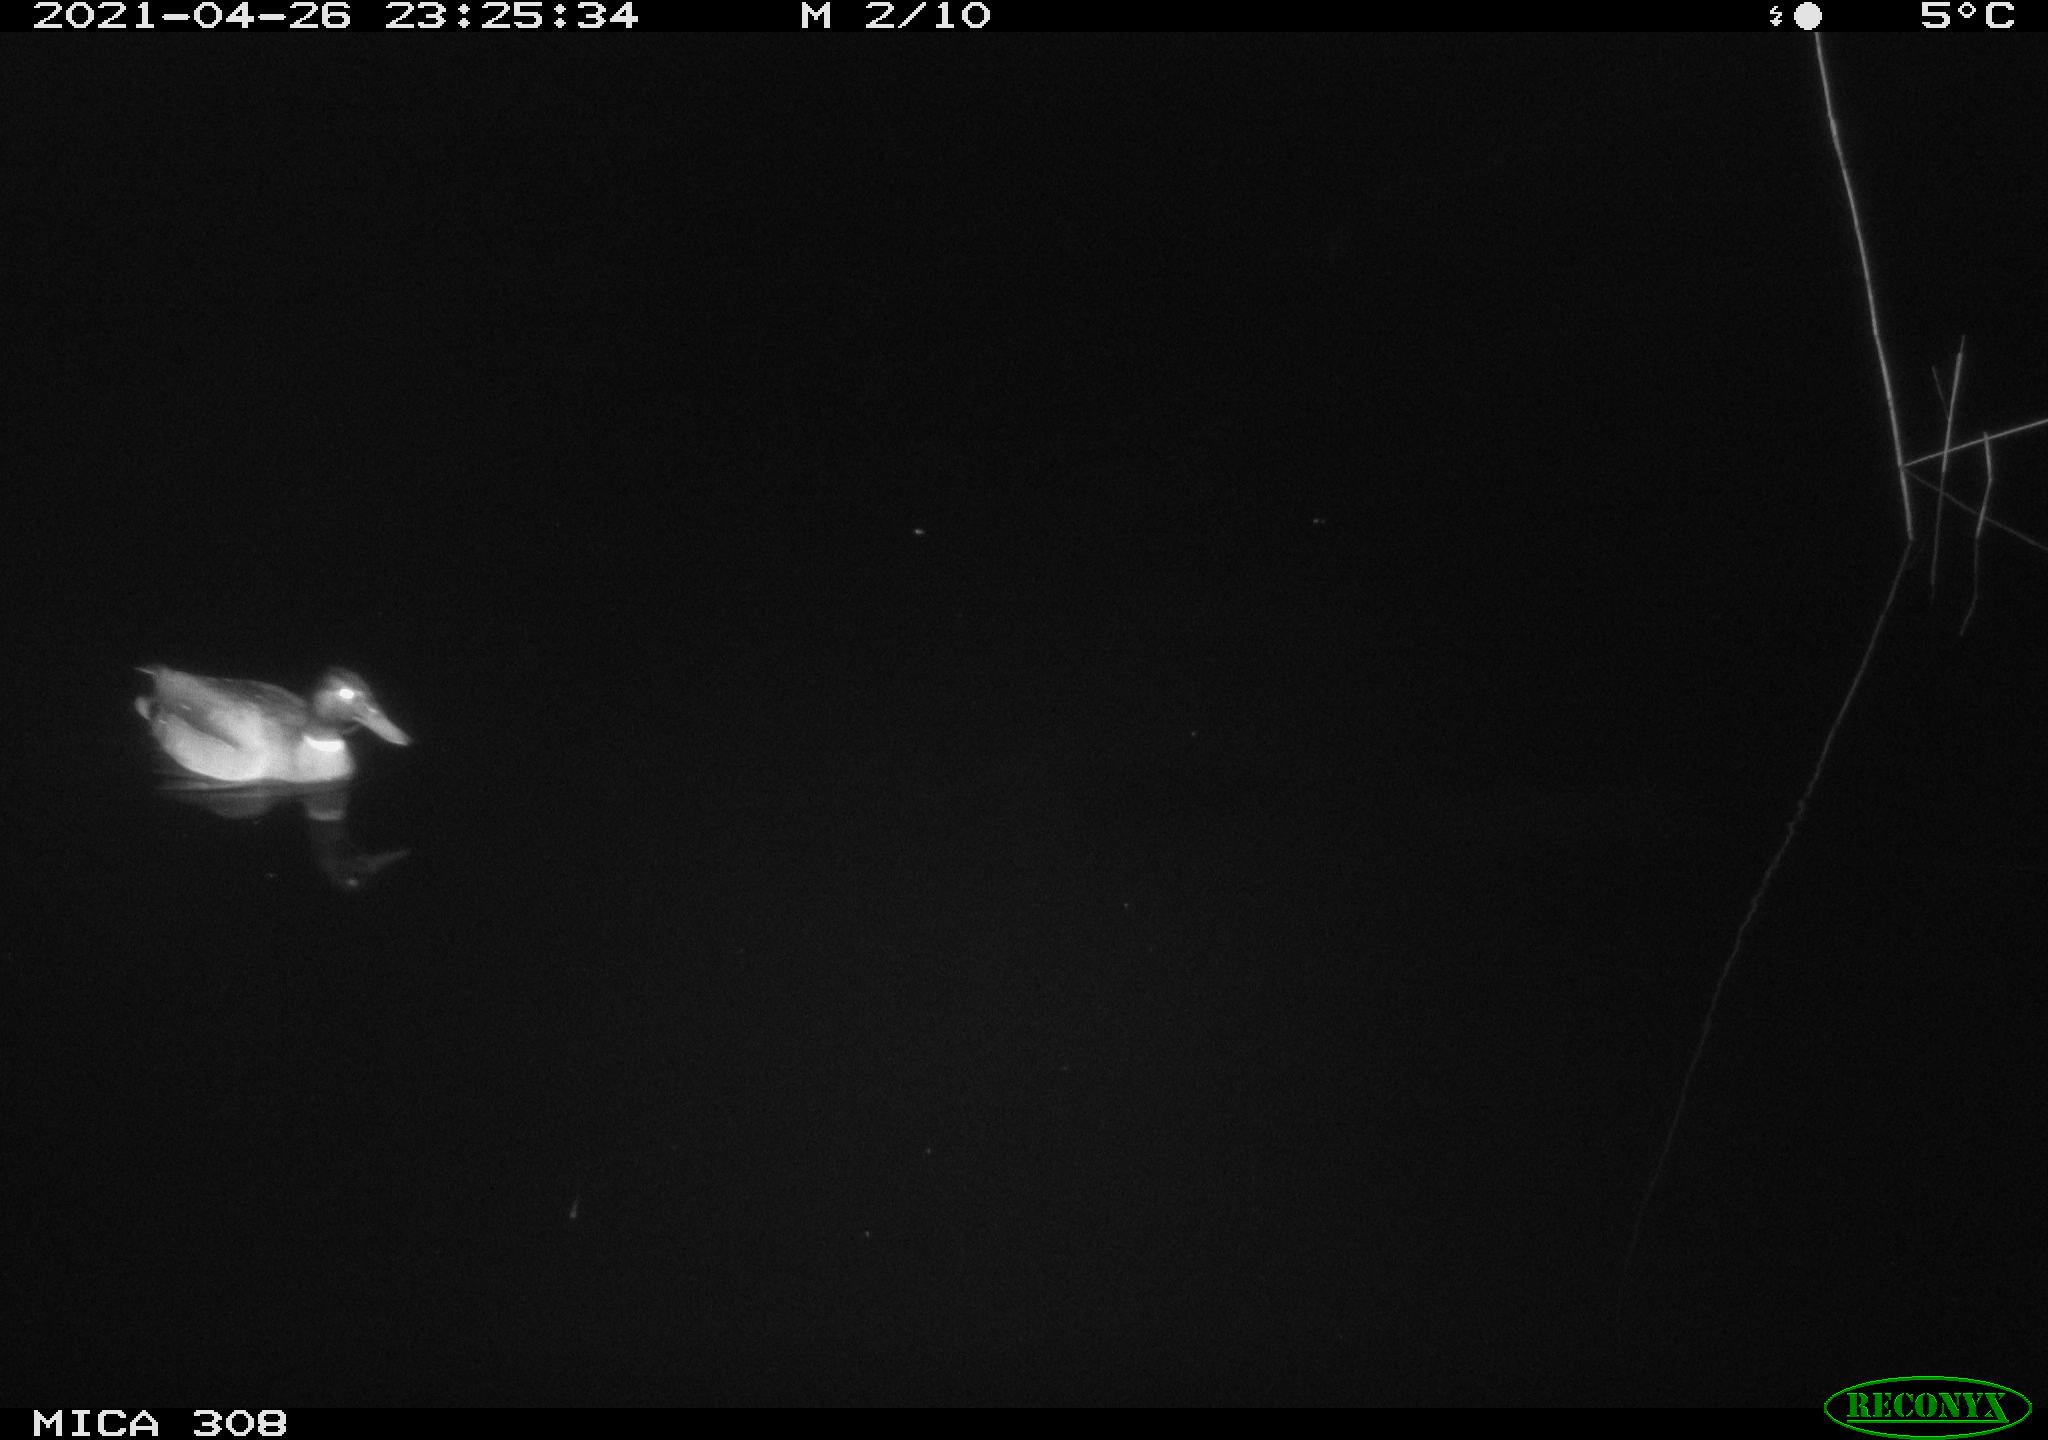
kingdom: Animalia
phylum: Chordata
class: Aves
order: Anseriformes
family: Anatidae
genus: Anas
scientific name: Anas platyrhynchos
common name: Mallard
